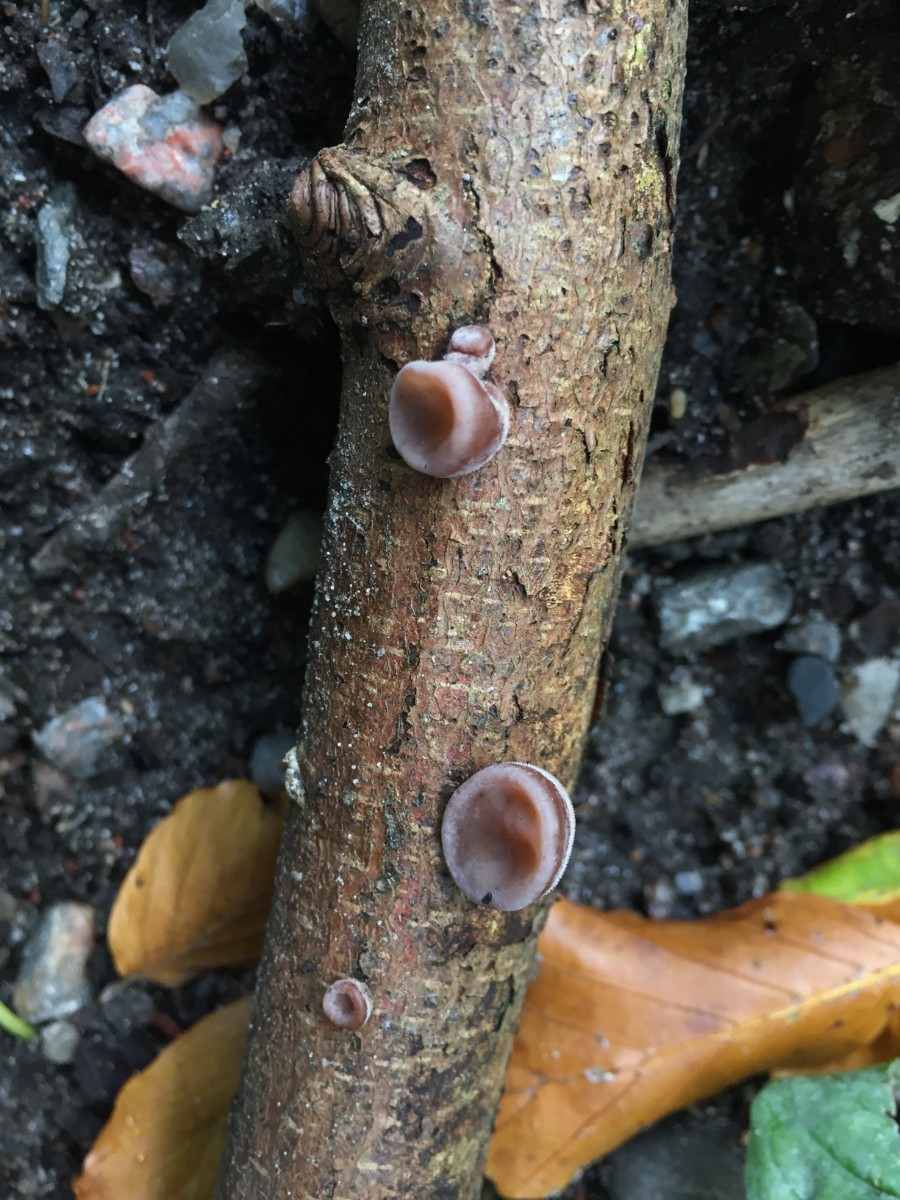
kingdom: Fungi
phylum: Basidiomycota
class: Agaricomycetes
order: Auriculariales
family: Auriculariaceae
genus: Auricularia
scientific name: Auricularia auricula-judae
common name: almindelig judasøre
